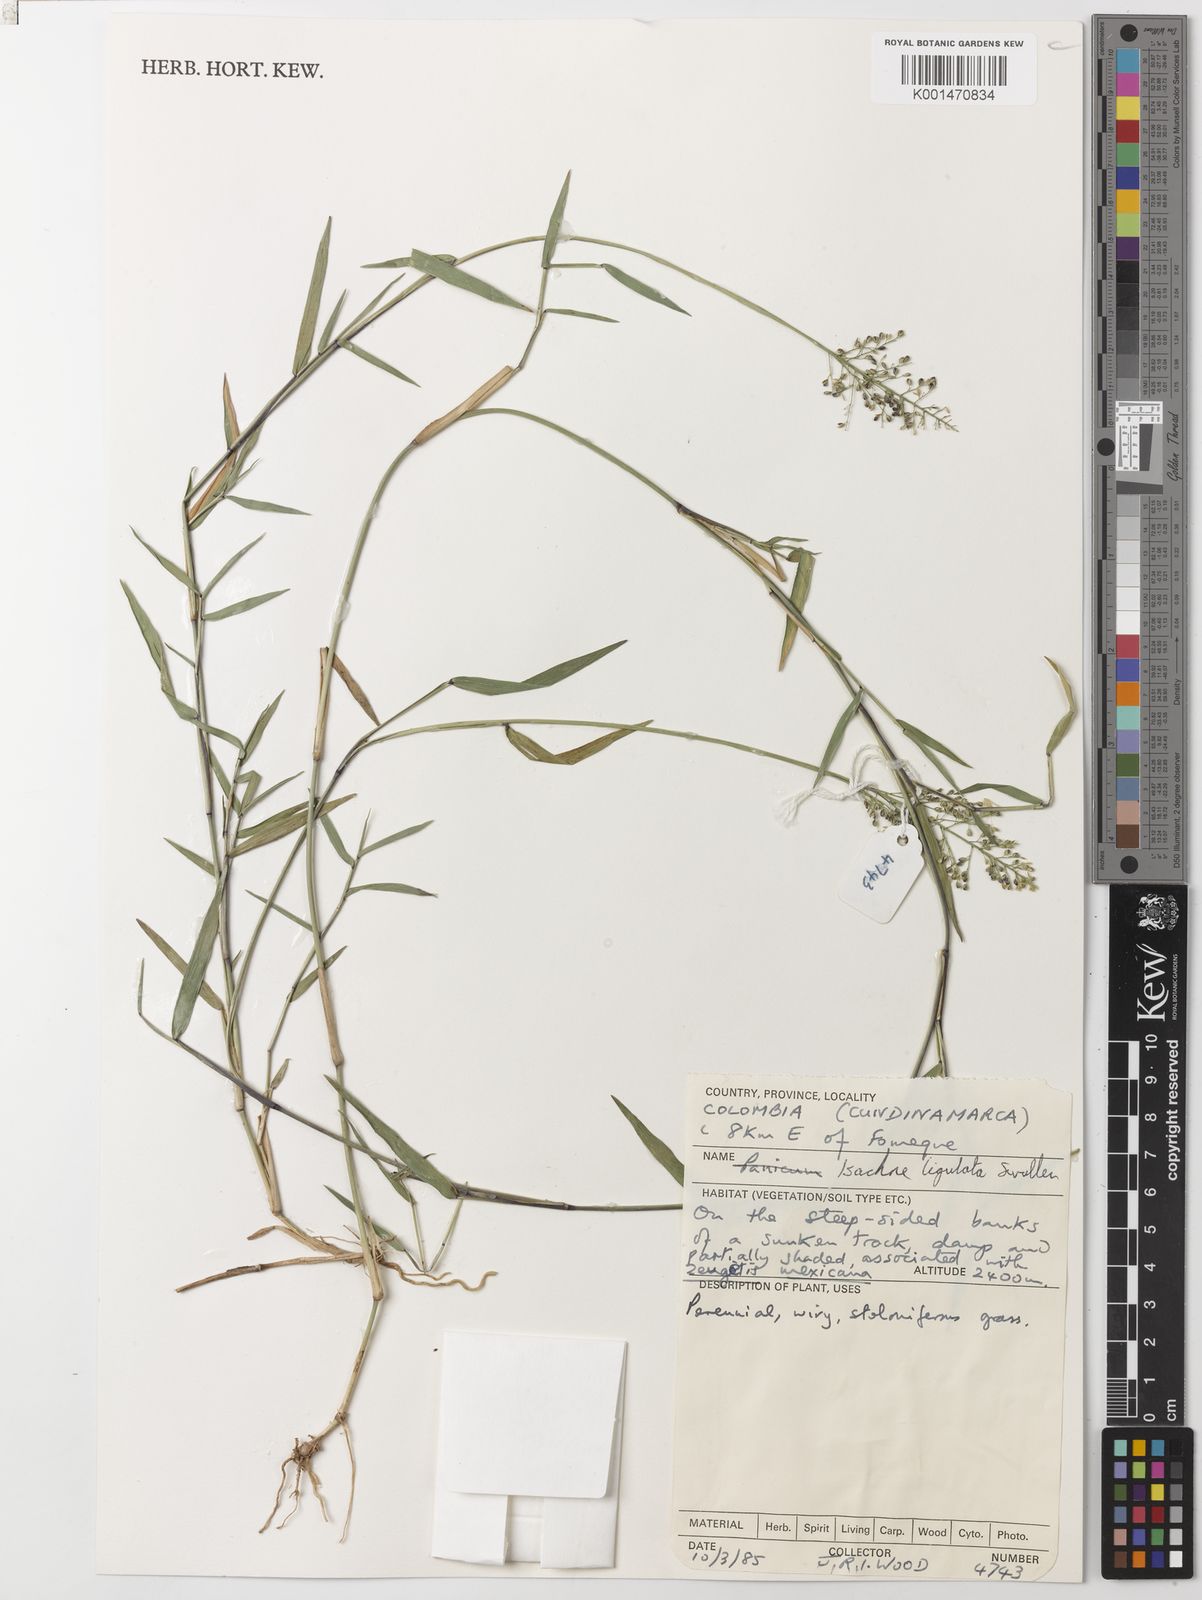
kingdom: Plantae
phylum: Tracheophyta
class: Liliopsida
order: Poales
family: Poaceae
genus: Isachne
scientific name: Isachne ligulata
